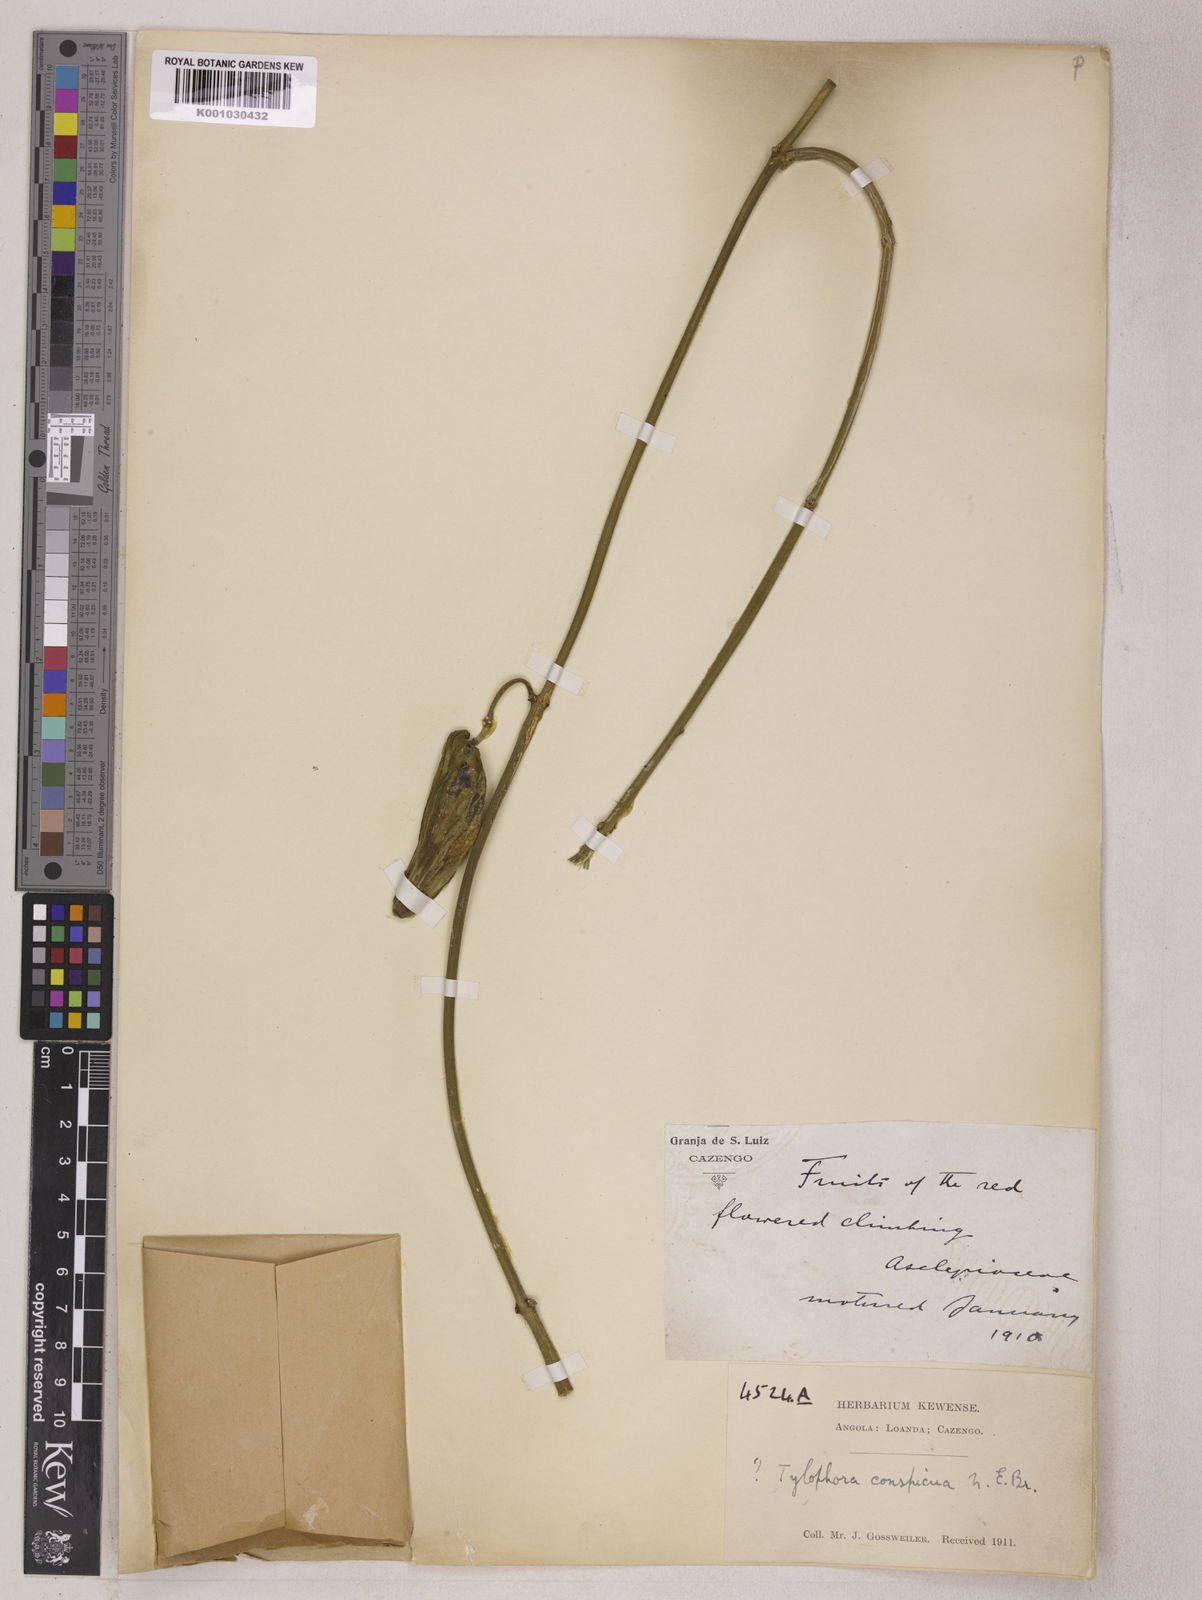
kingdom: Plantae
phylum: Tracheophyta
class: Magnoliopsida
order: Gentianales
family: Apocynaceae
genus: Vincetoxicum
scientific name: Vincetoxicum conspicuum
